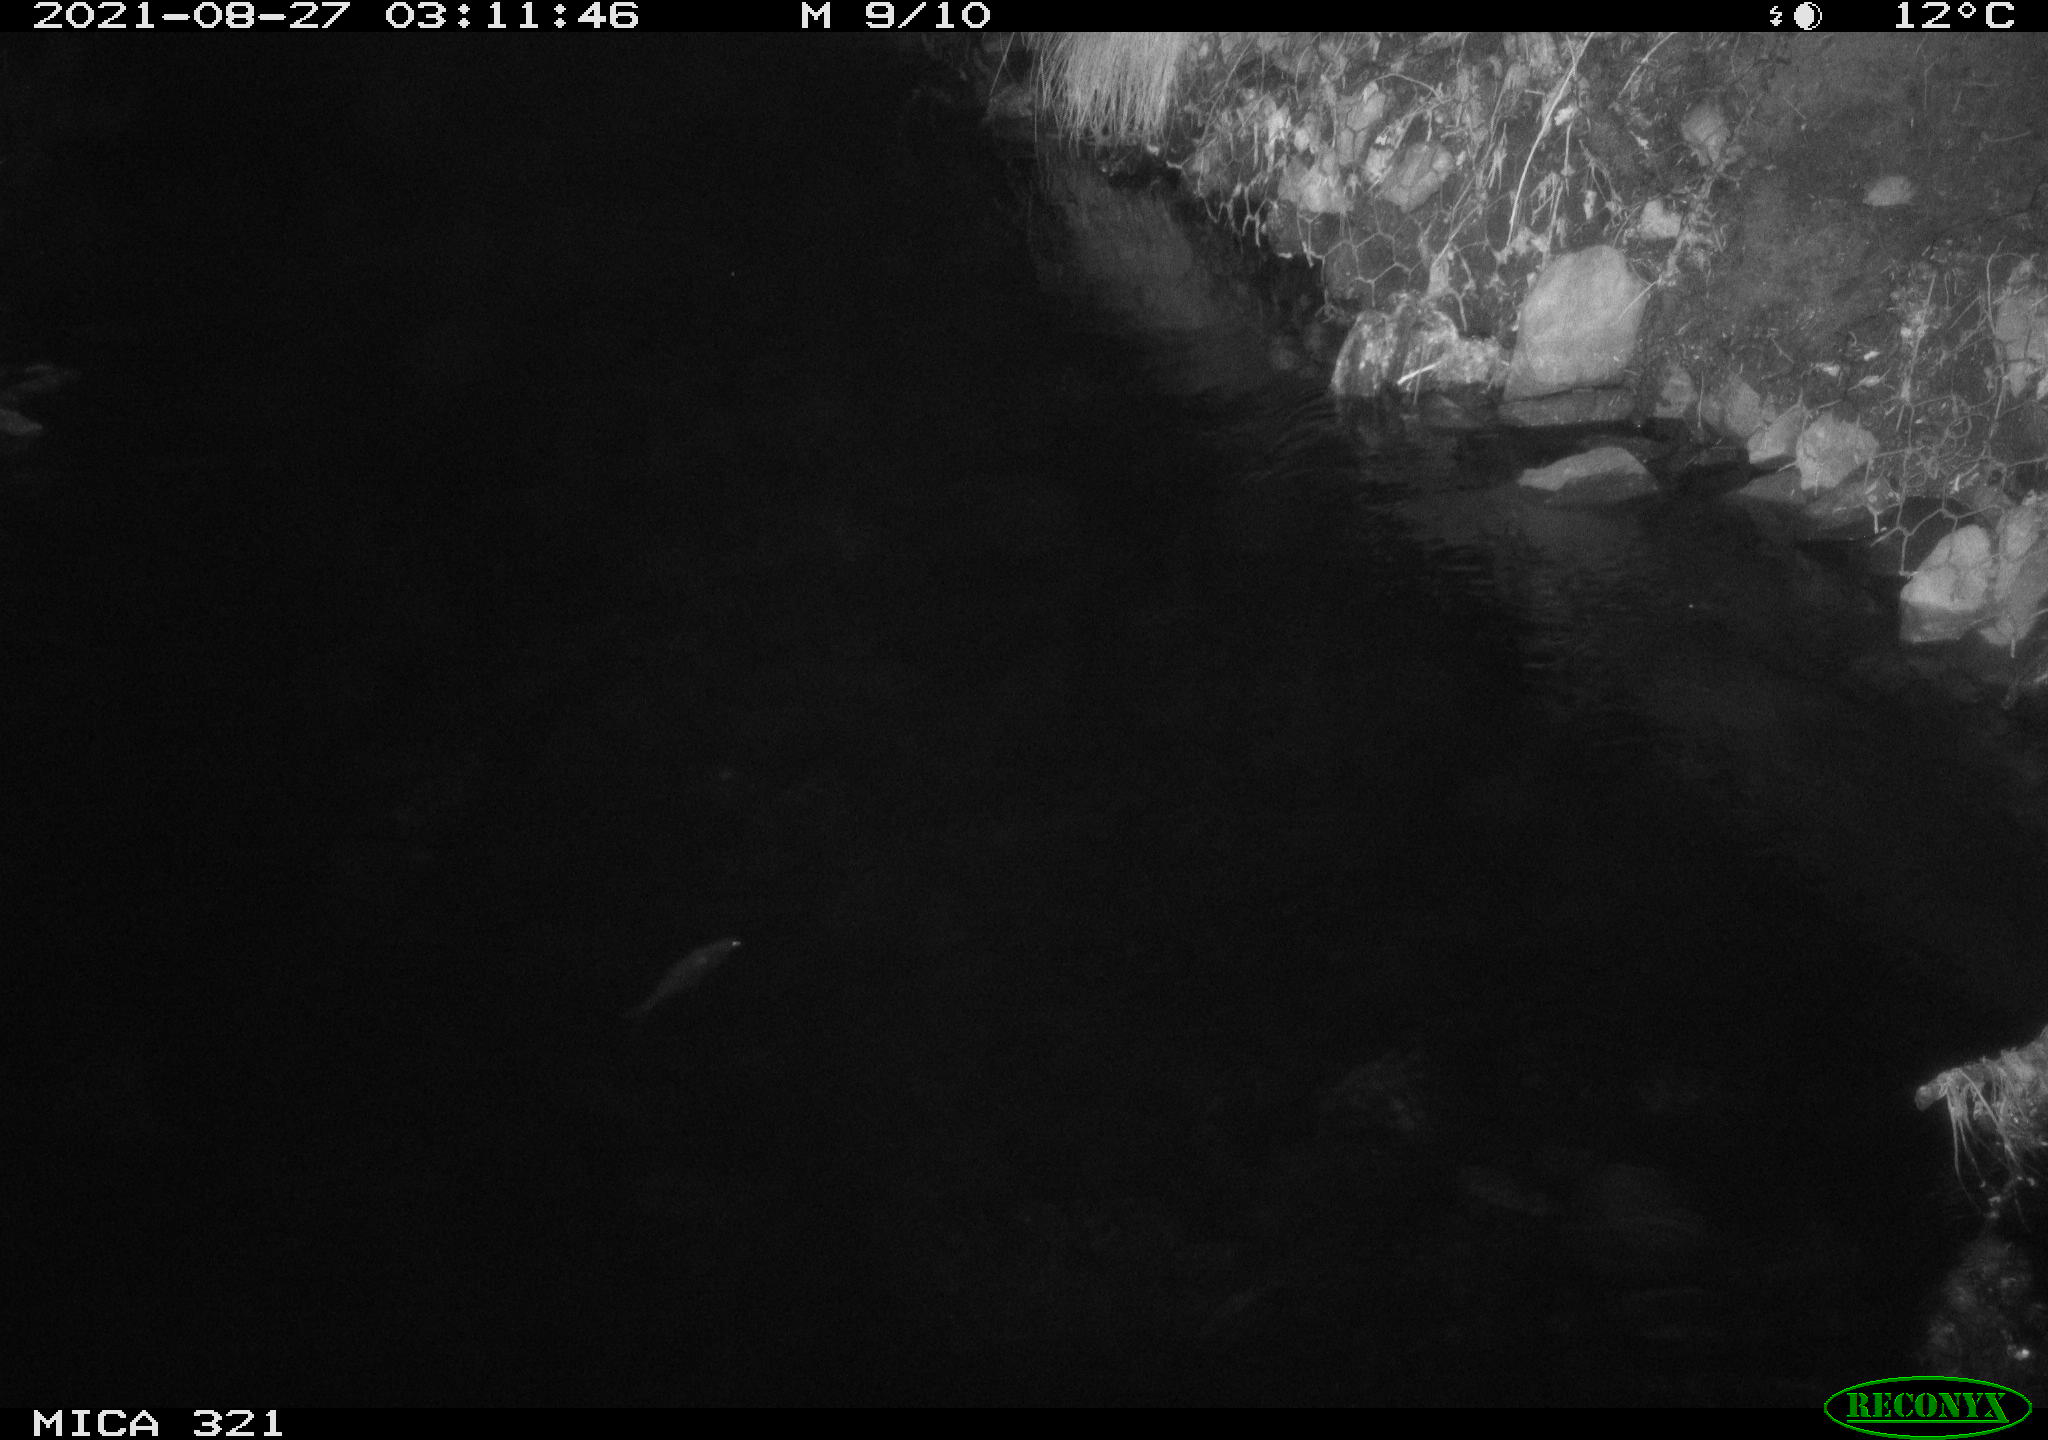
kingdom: Animalia
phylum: Chordata
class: Aves
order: Anseriformes
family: Anatidae
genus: Anas
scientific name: Anas platyrhynchos
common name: Mallard
